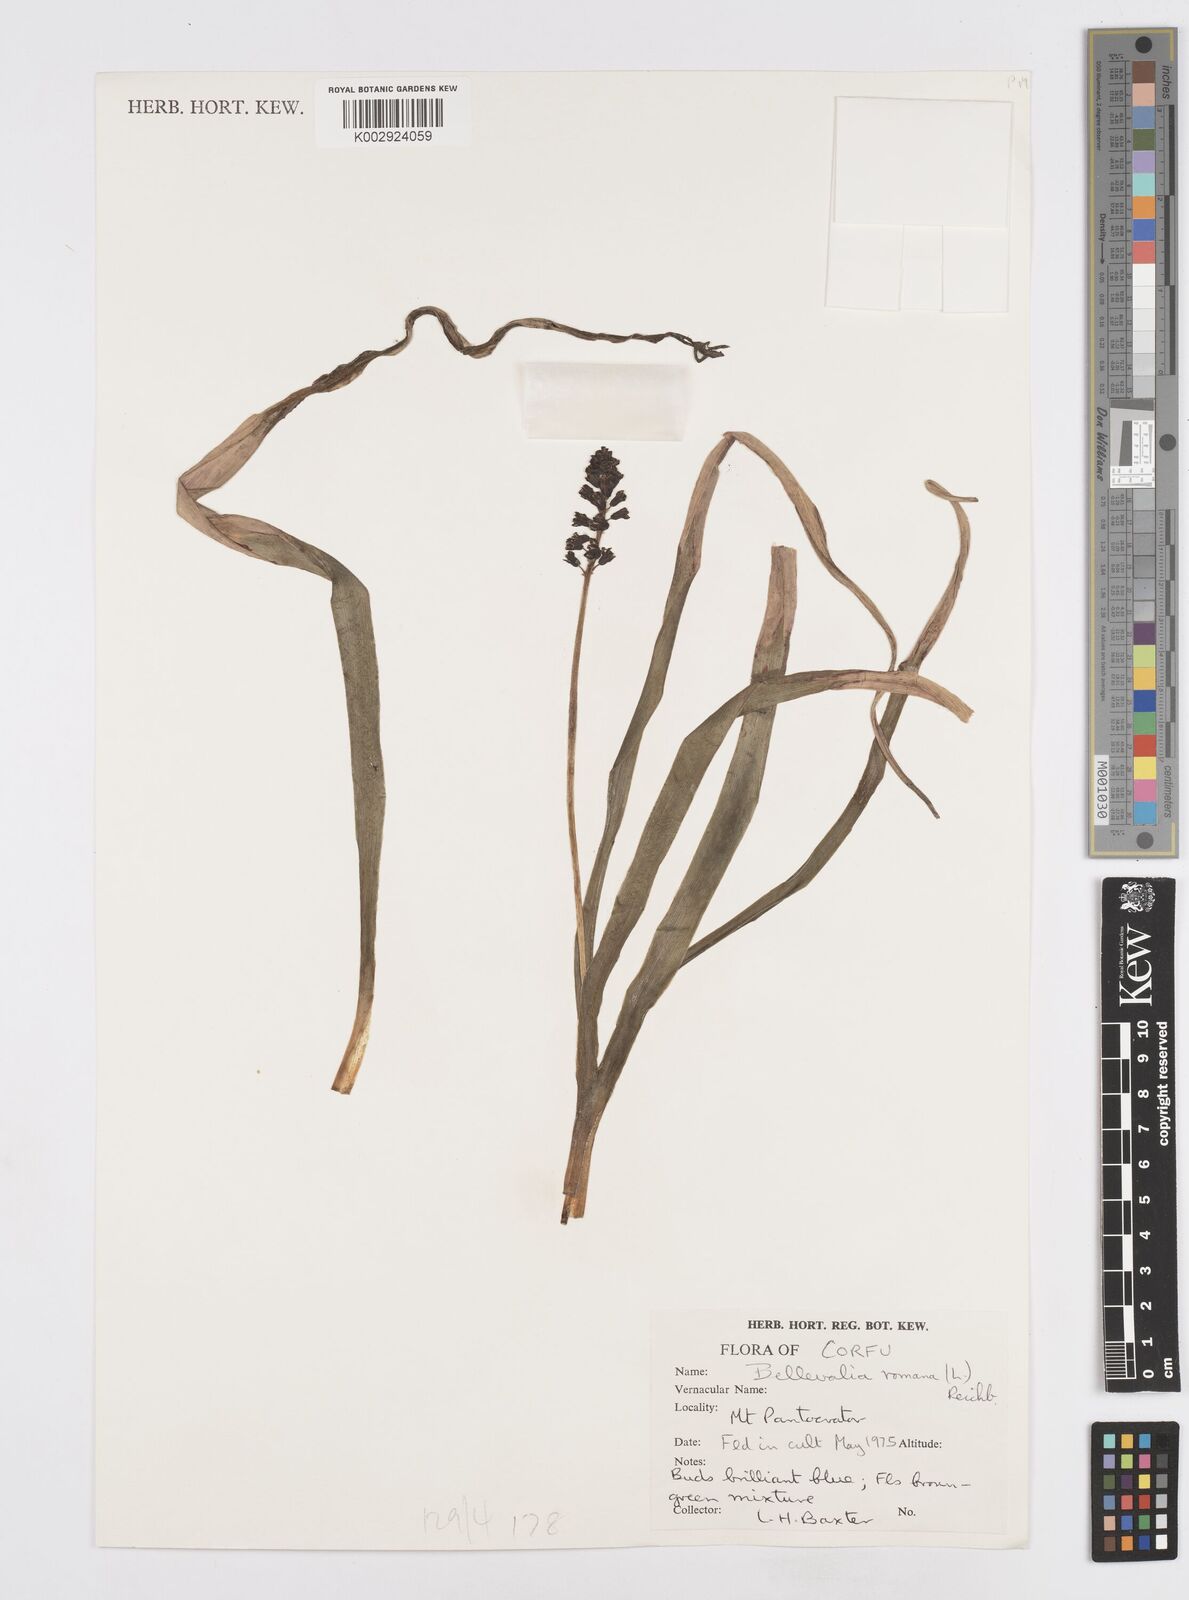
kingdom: Plantae
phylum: Tracheophyta
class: Liliopsida
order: Asparagales
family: Asparagaceae
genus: Bellevalia
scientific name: Bellevalia dubia
